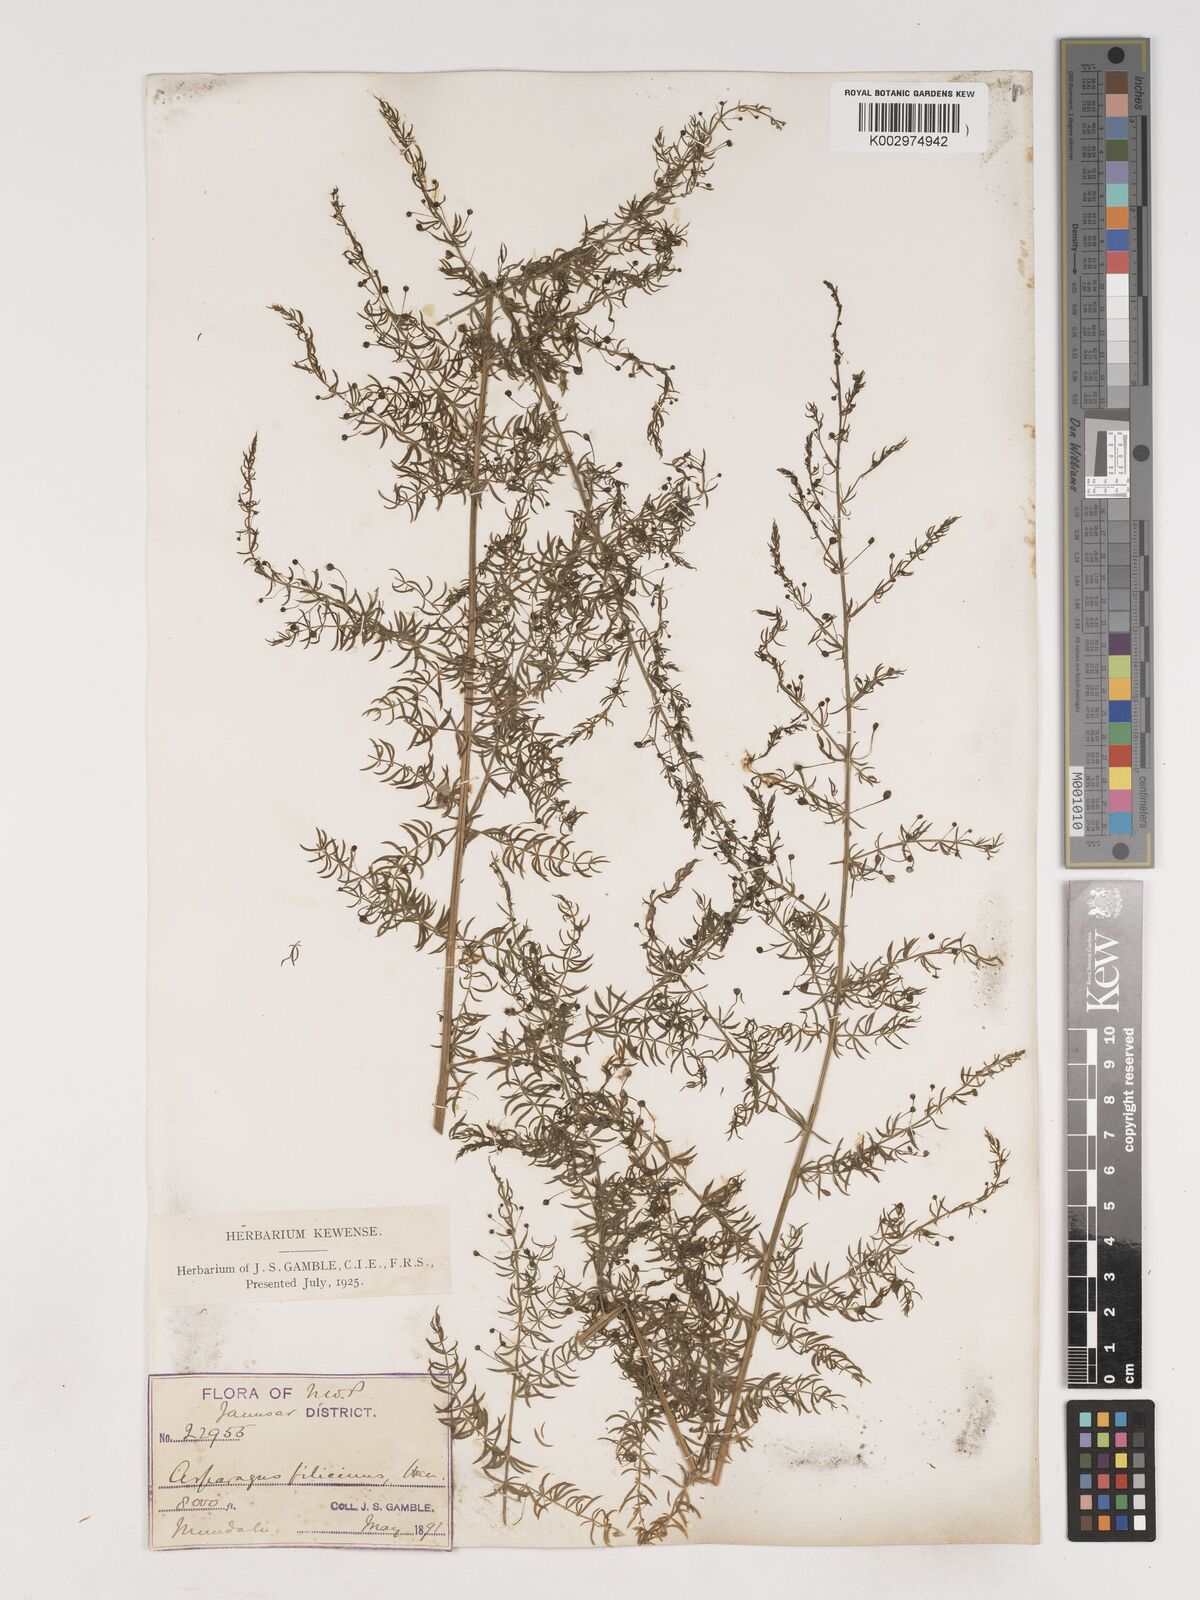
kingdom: Plantae
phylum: Tracheophyta
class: Liliopsida
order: Asparagales
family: Asparagaceae
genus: Asparagus
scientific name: Asparagus filicinus
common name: Fern asparagus
